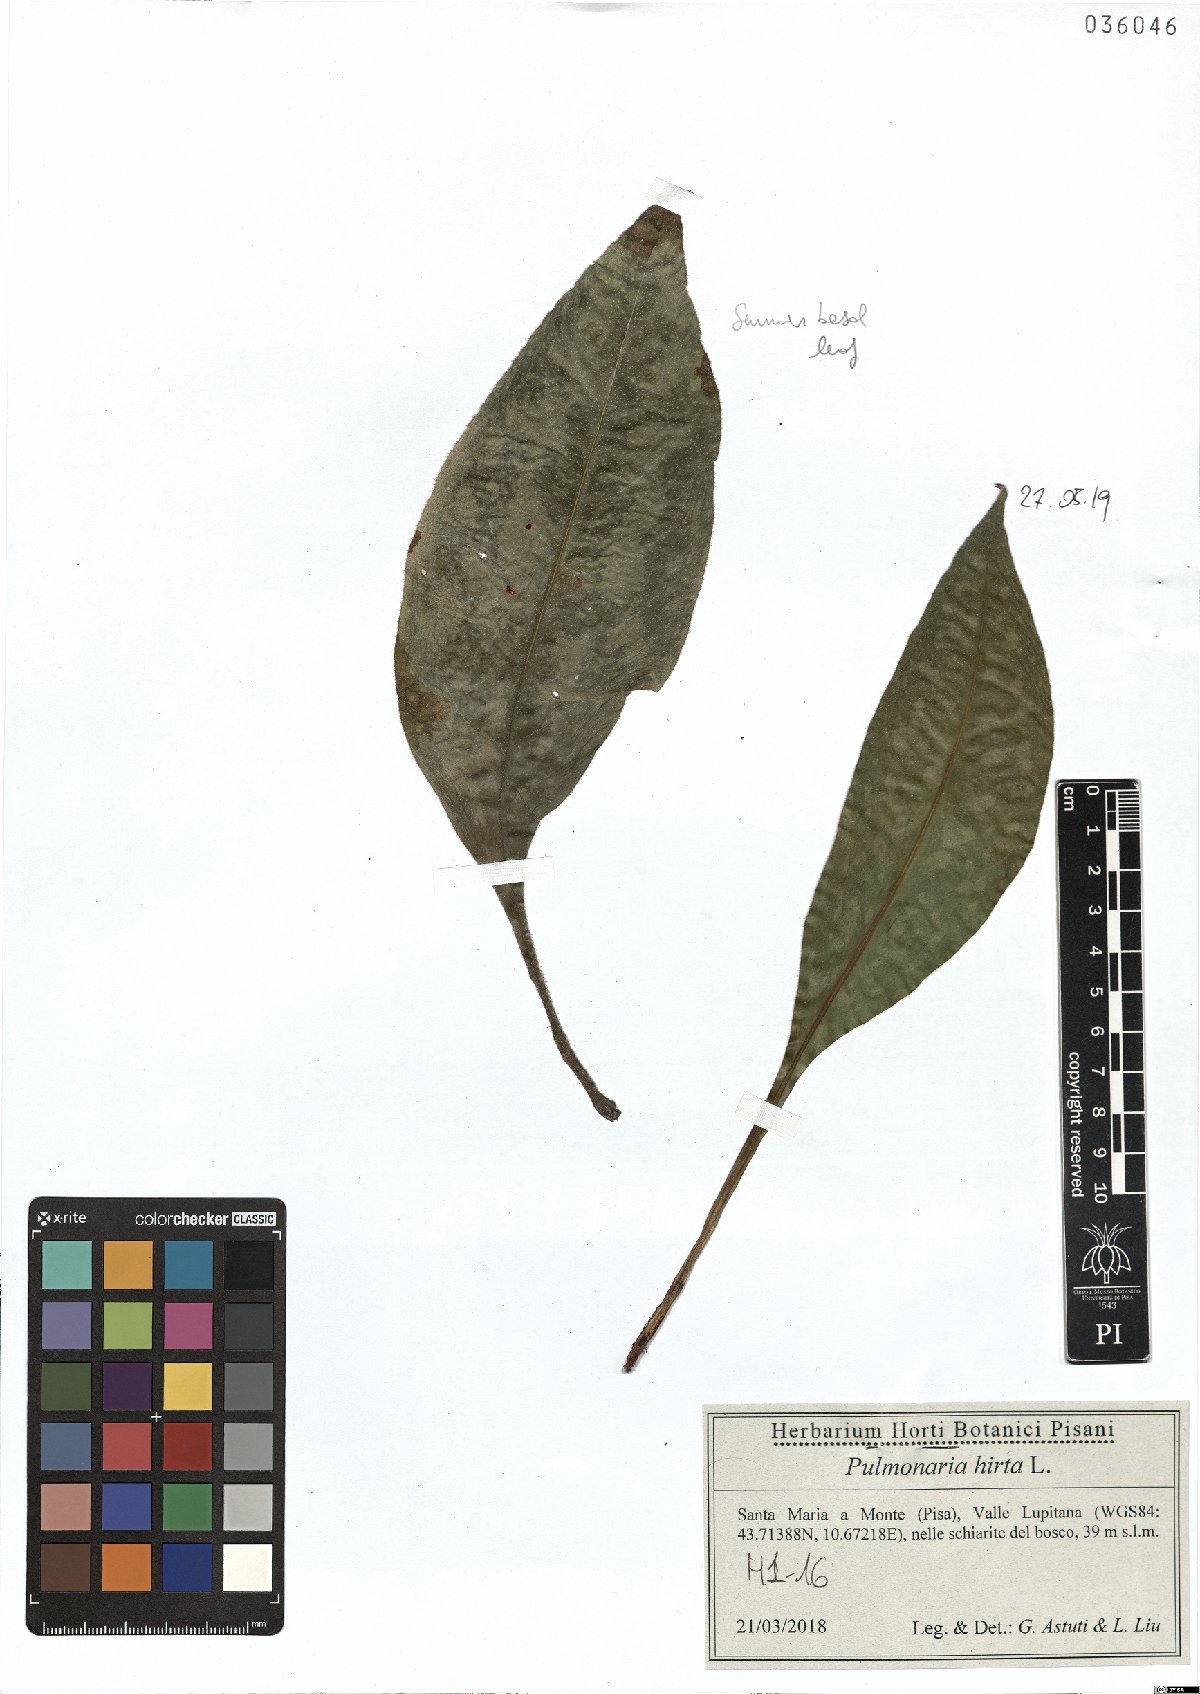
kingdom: Plantae
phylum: Tracheophyta
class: Magnoliopsida
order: Boraginales
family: Boraginaceae
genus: Pulmonaria
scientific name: Pulmonaria hirta
